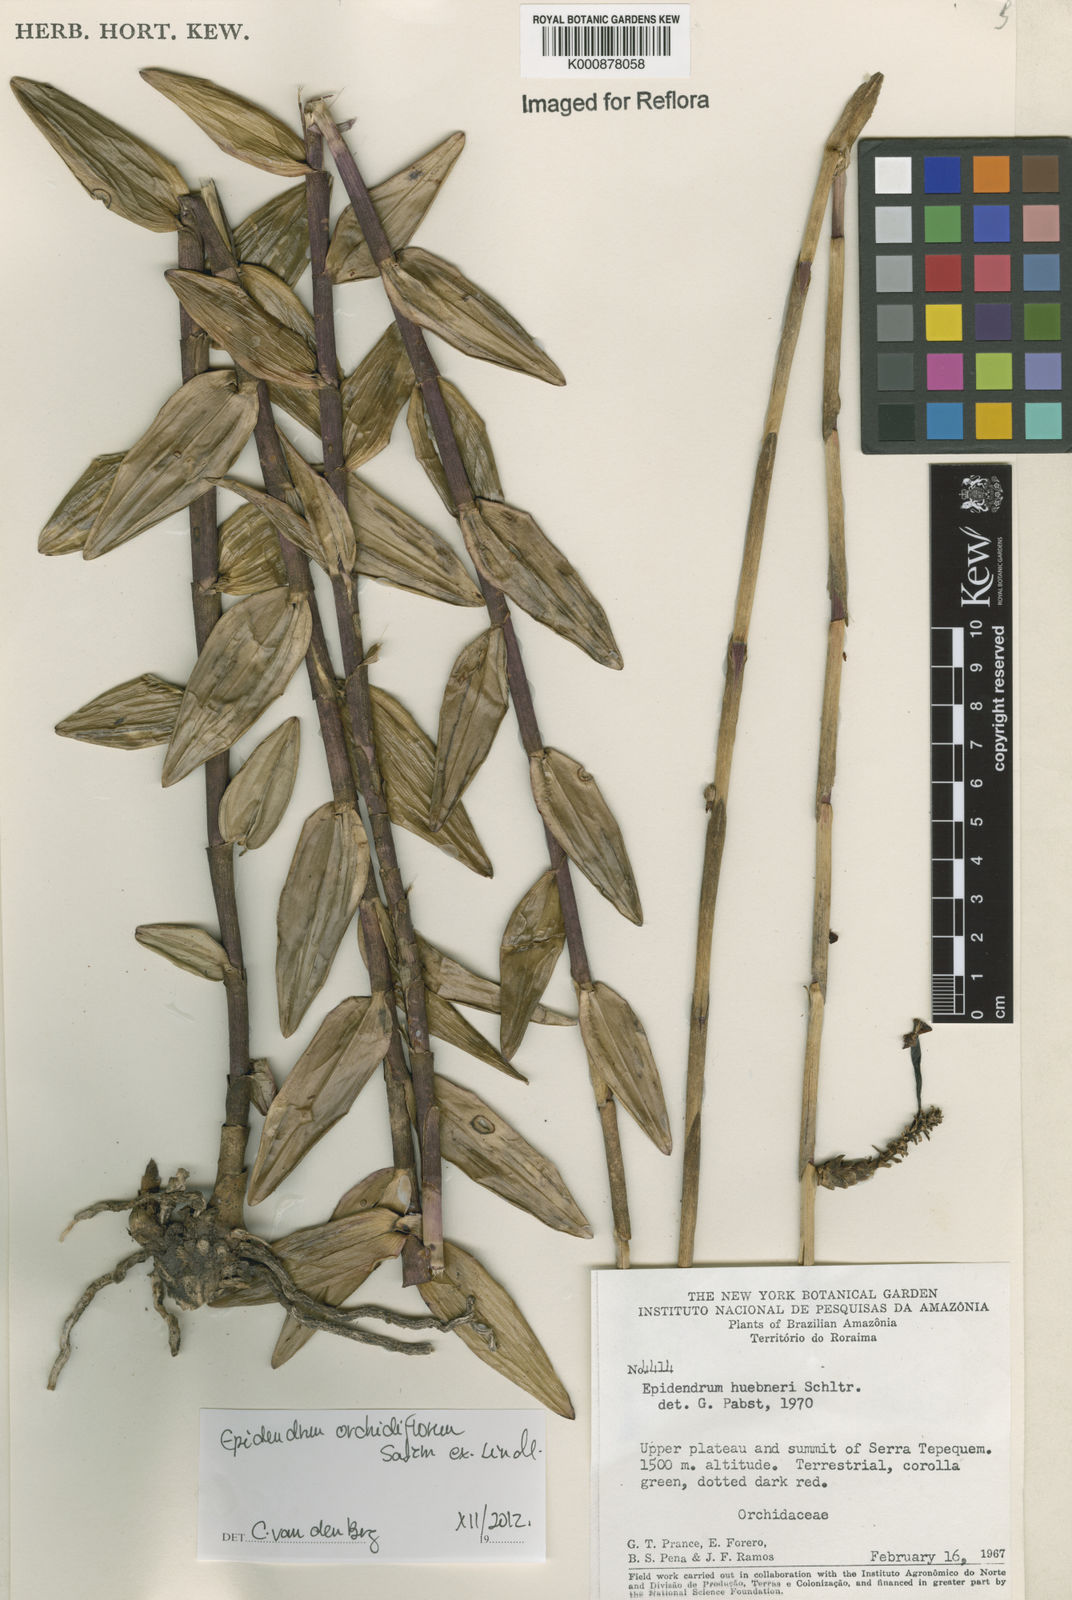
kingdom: Plantae
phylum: Tracheophyta
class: Liliopsida
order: Asparagales
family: Orchidaceae
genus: Epidendrum
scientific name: Epidendrum orchidiflorum
